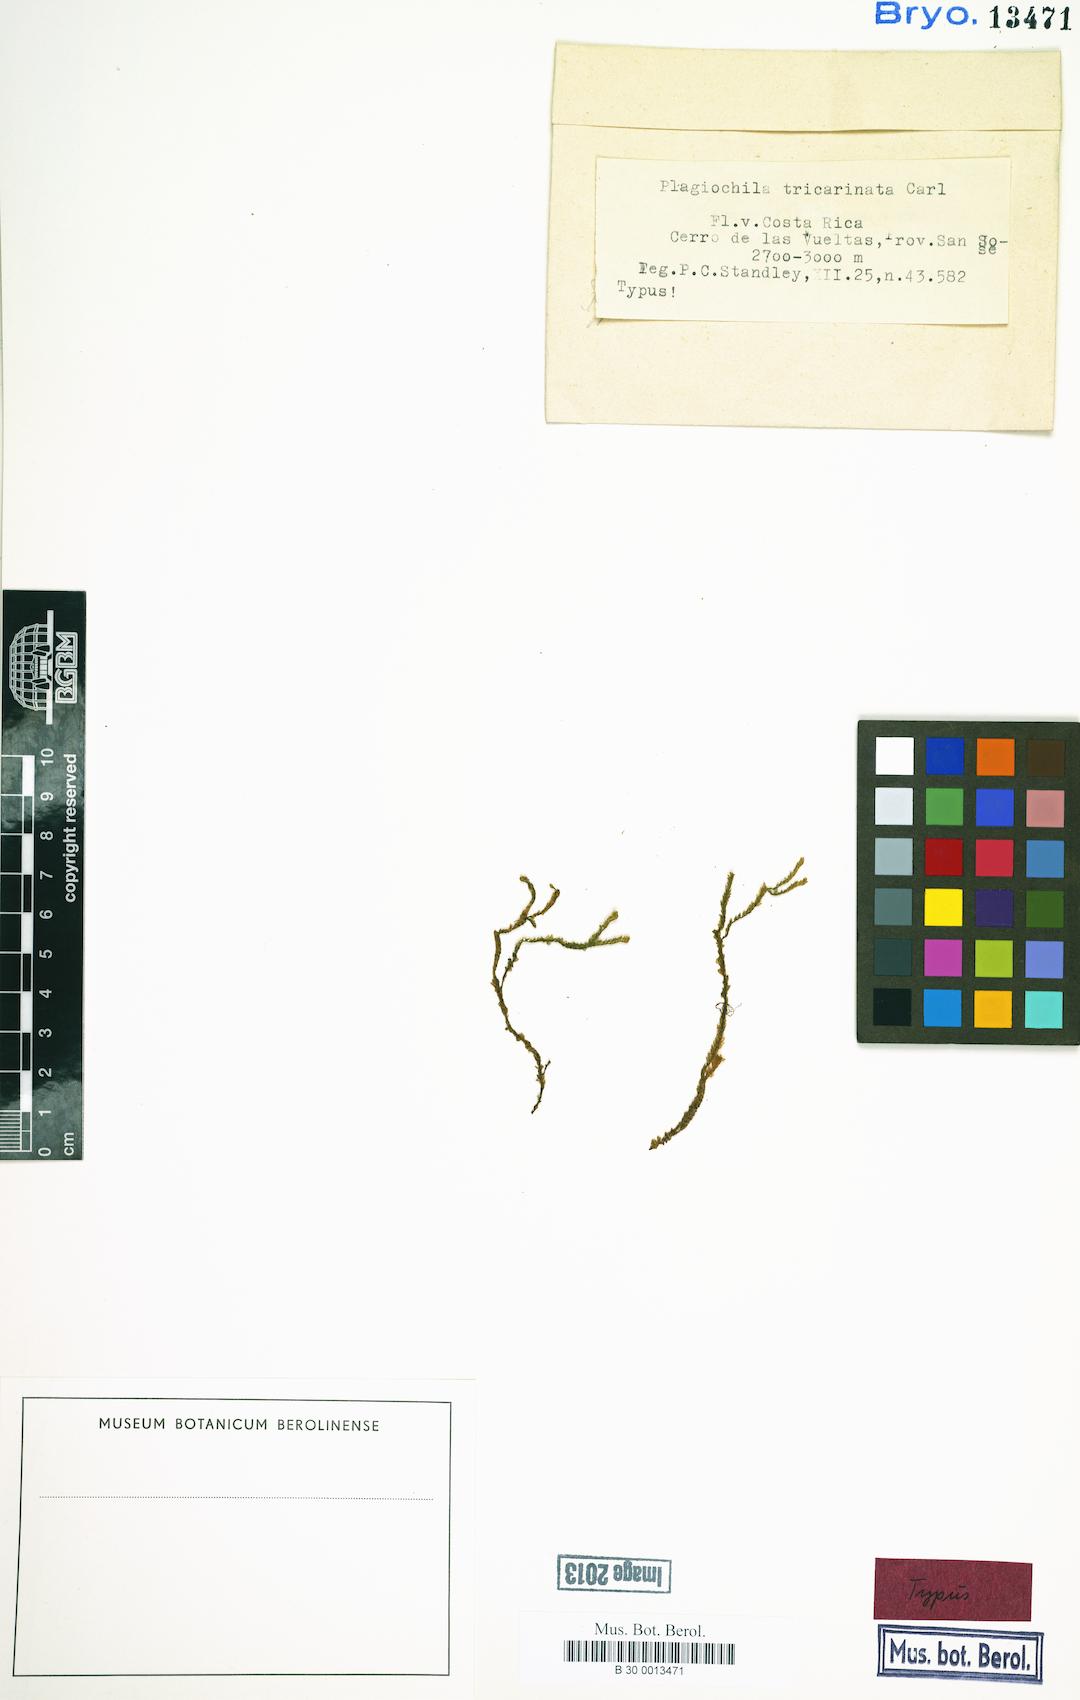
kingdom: Plantae
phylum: Marchantiophyta
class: Jungermanniopsida
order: Jungermanniales
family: Plagiochilaceae
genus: Plagiochila
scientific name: Plagiochila retrorsa
